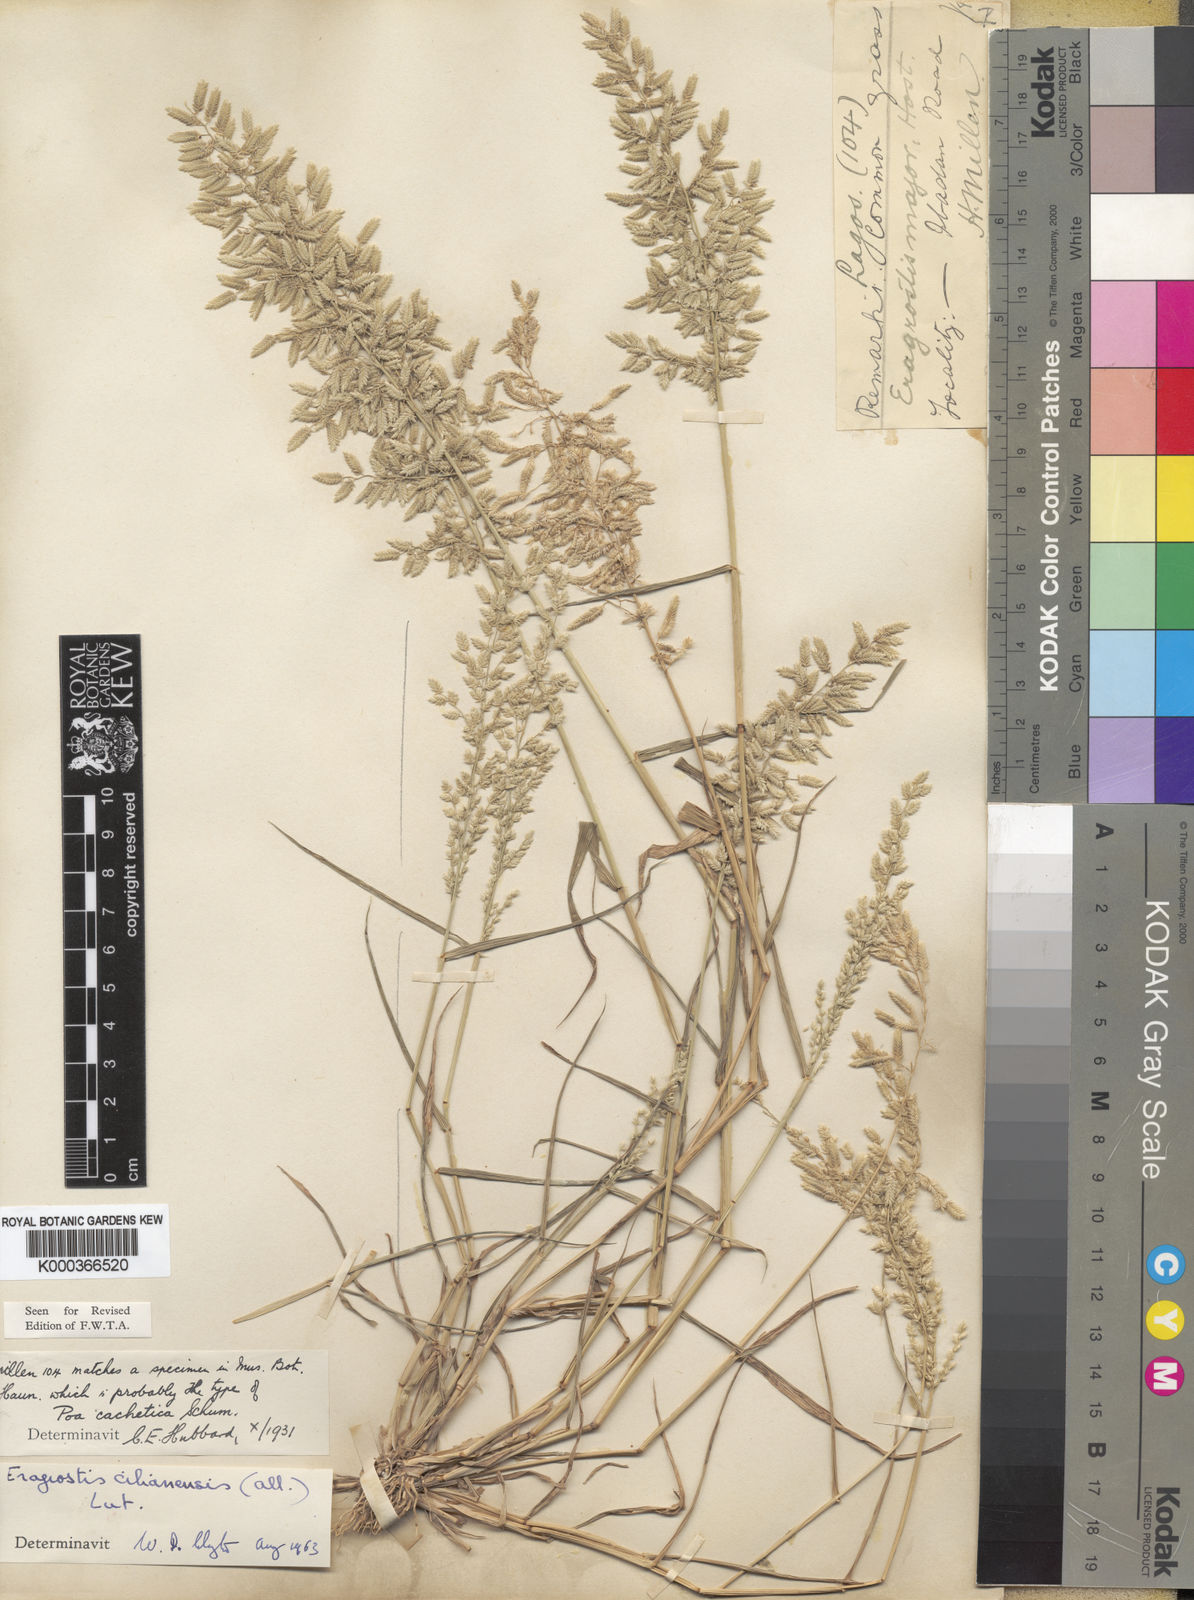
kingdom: Plantae
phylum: Tracheophyta
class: Liliopsida
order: Poales
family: Poaceae
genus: Eragrostis
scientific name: Eragrostis cilianensis
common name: Stinkgrass
